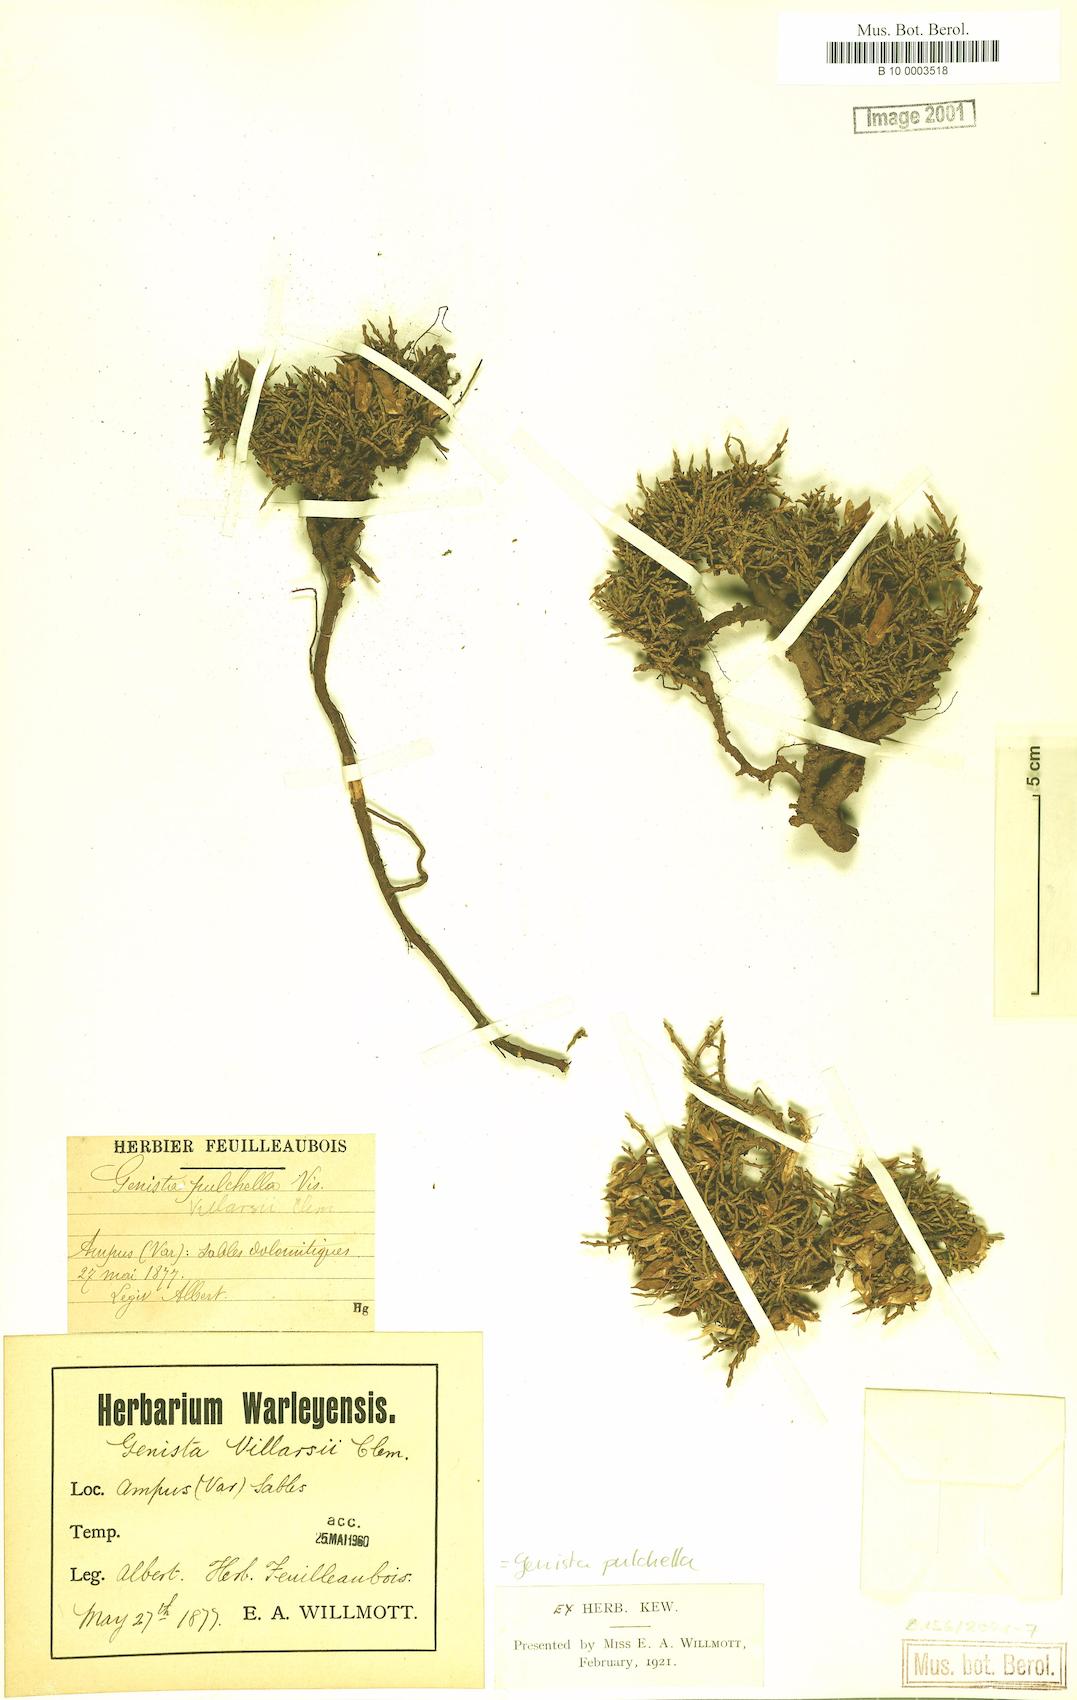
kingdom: Plantae
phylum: Tracheophyta
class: Magnoliopsida
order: Fabales
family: Fabaceae
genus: Genista
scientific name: Genista pulchella
